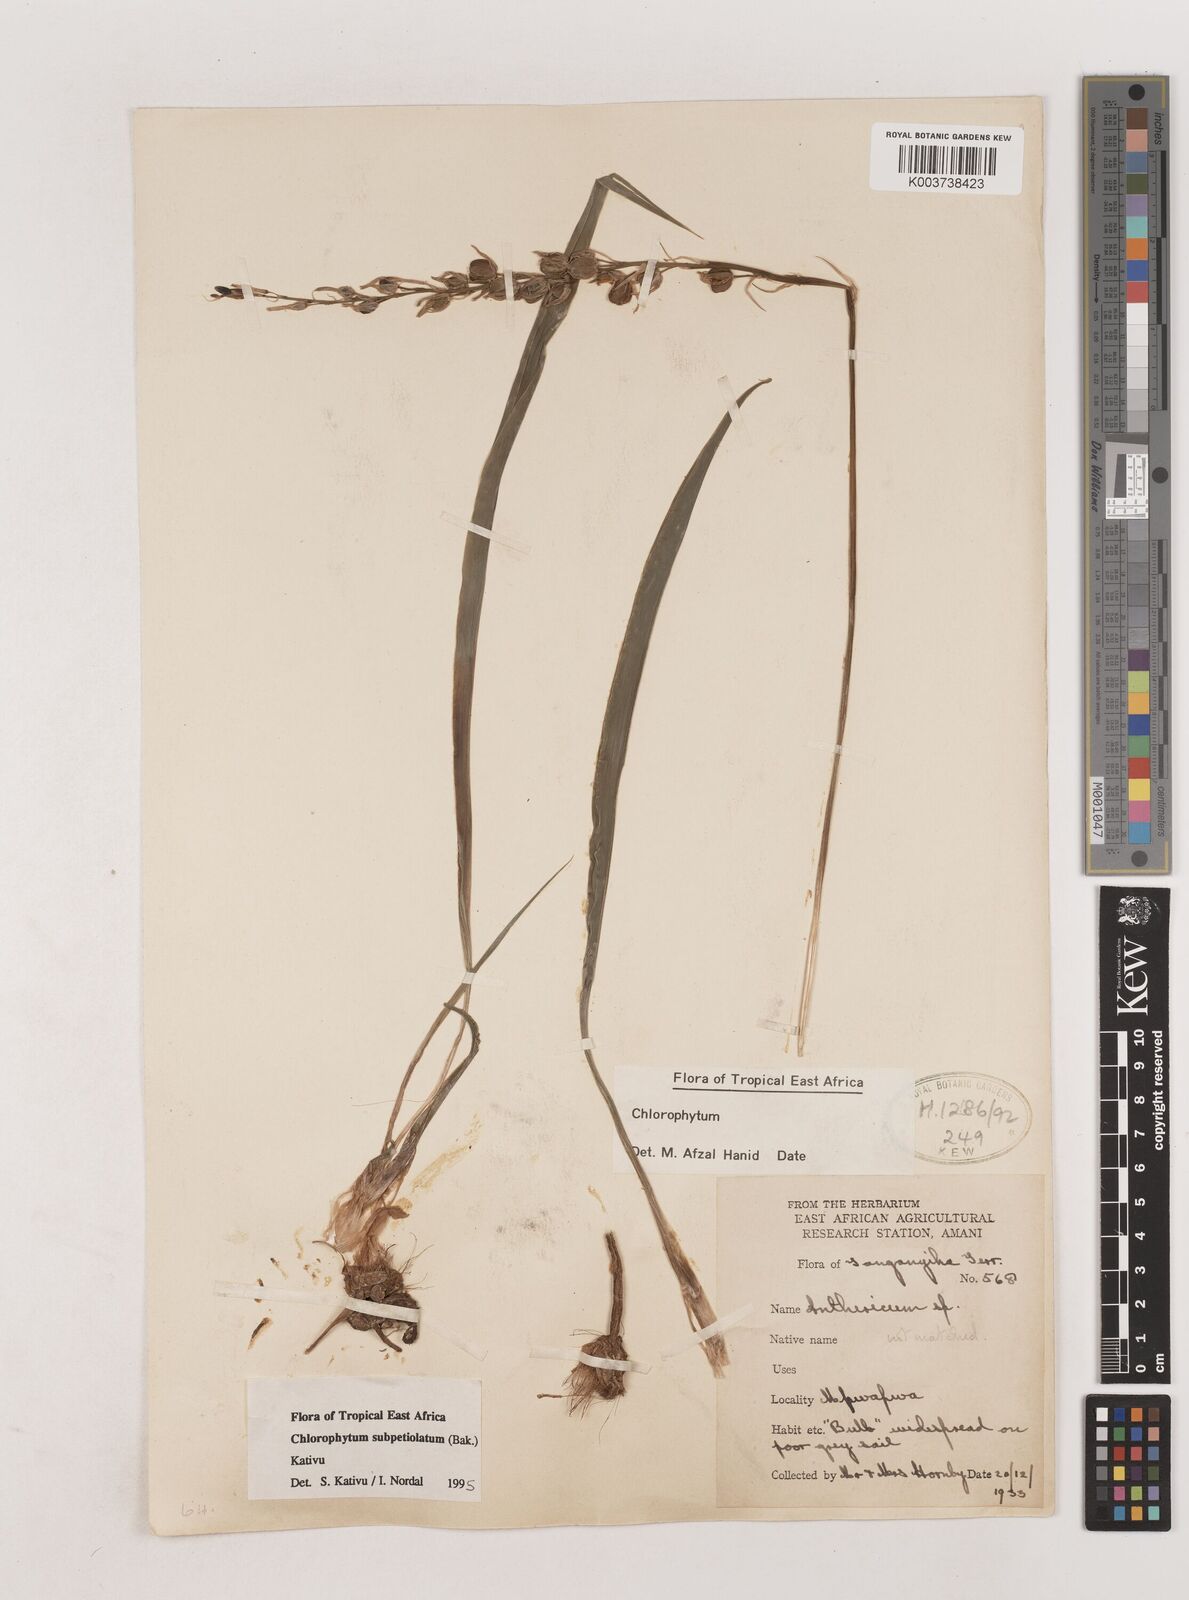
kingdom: Plantae
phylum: Tracheophyta
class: Liliopsida
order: Asparagales
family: Asparagaceae
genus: Chlorophytum
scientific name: Chlorophytum subpetiolatum
